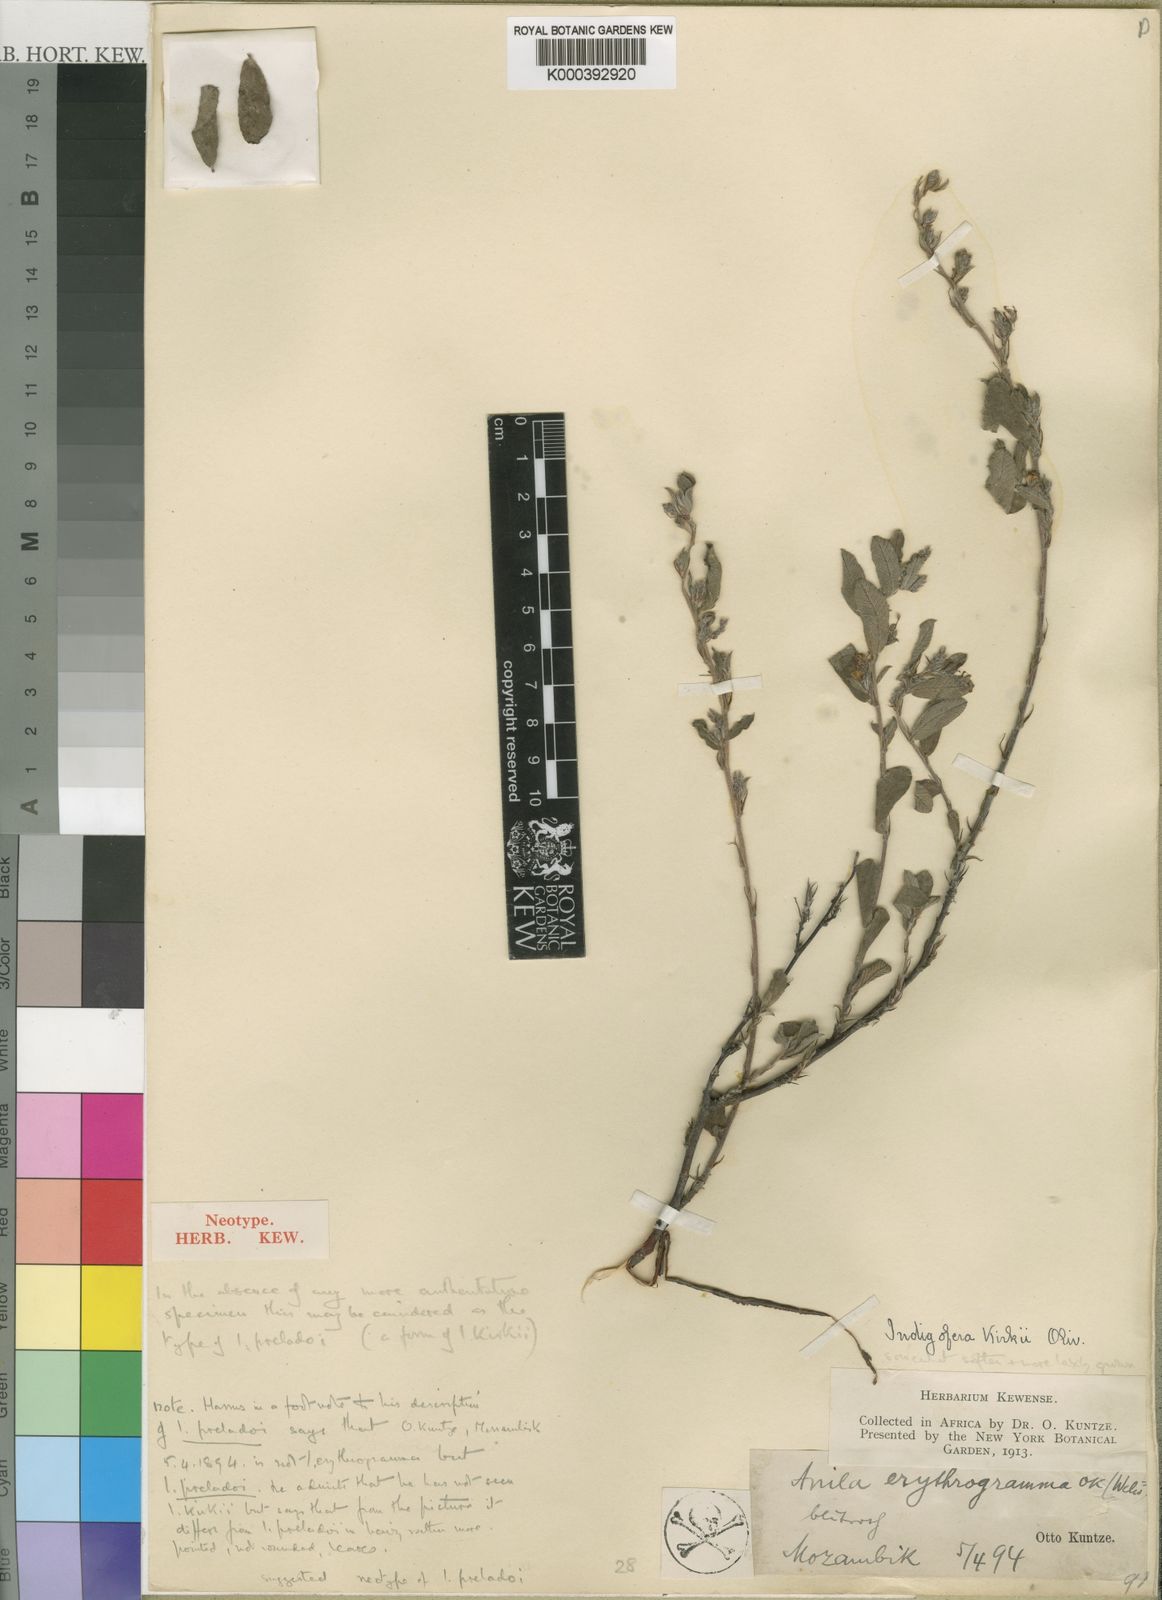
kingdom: Plantae
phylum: Tracheophyta
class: Magnoliopsida
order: Fabales
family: Fabaceae
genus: Indigofera
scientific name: Indigofera kirkii
